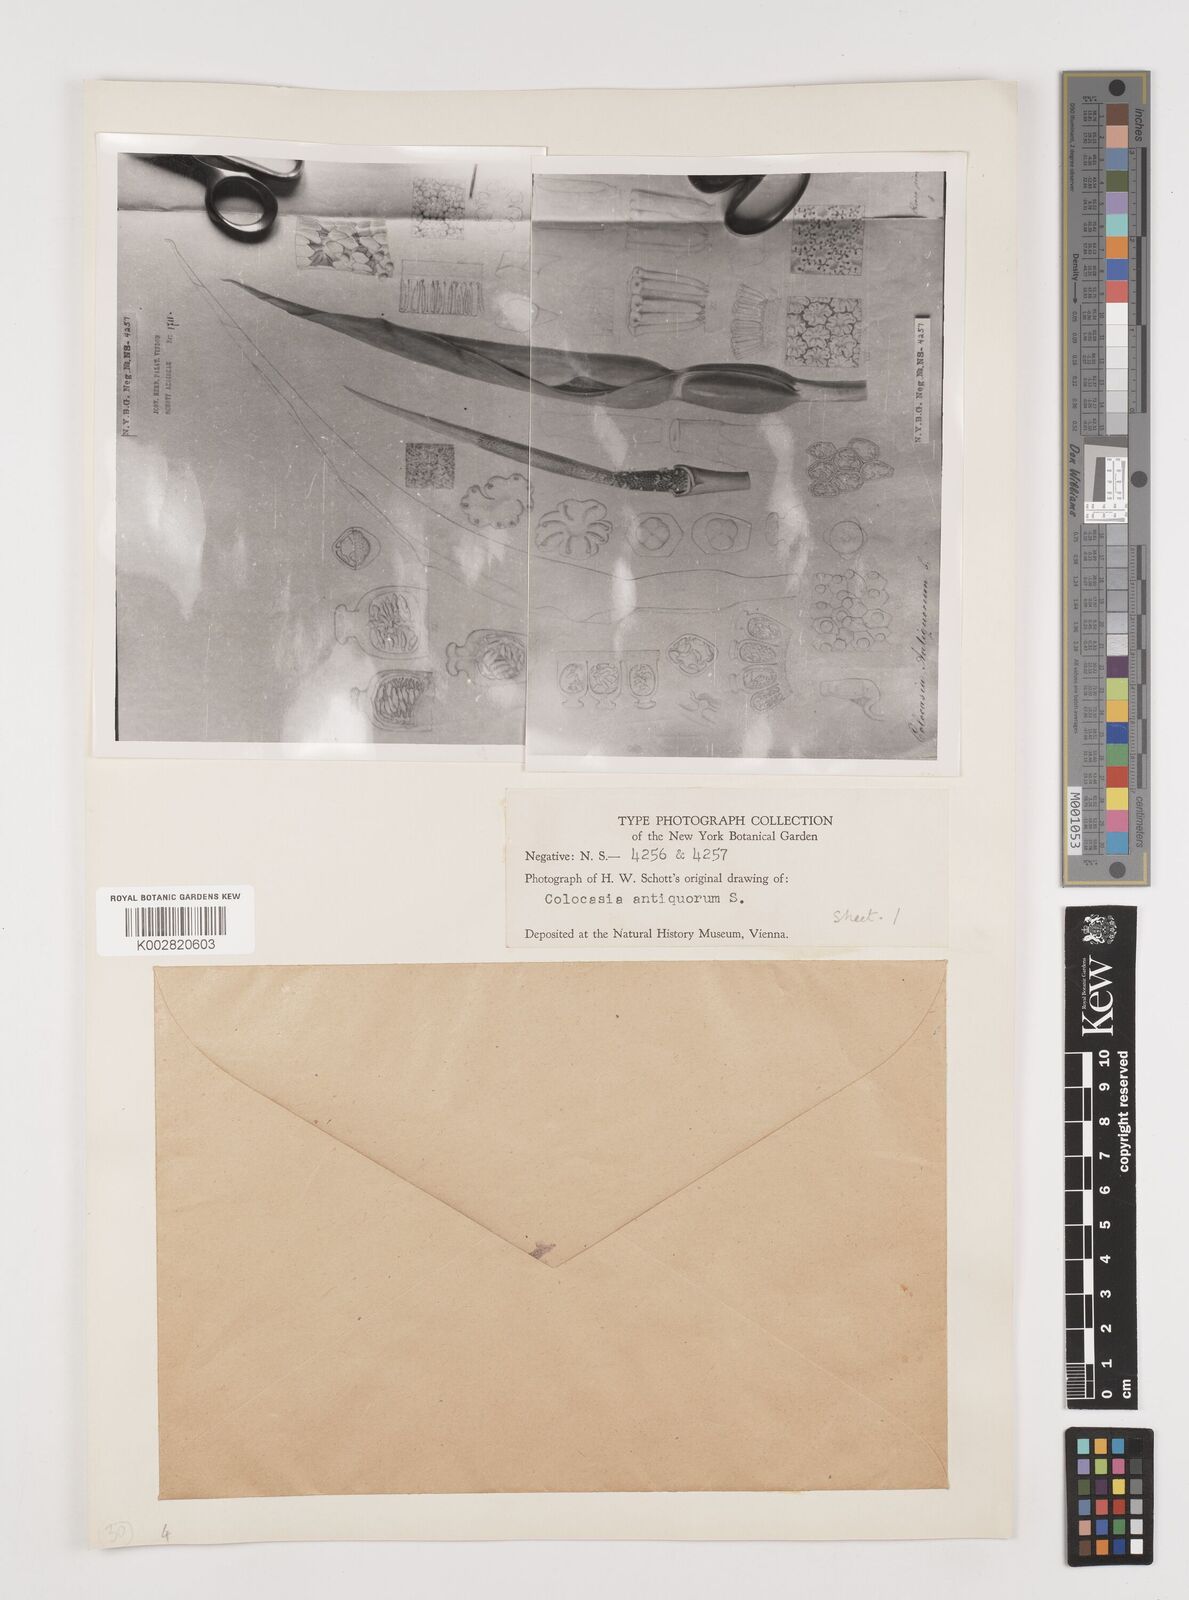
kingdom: Plantae
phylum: Tracheophyta
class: Liliopsida
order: Alismatales
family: Araceae
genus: Colocasia
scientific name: Colocasia esculenta
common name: Taro
